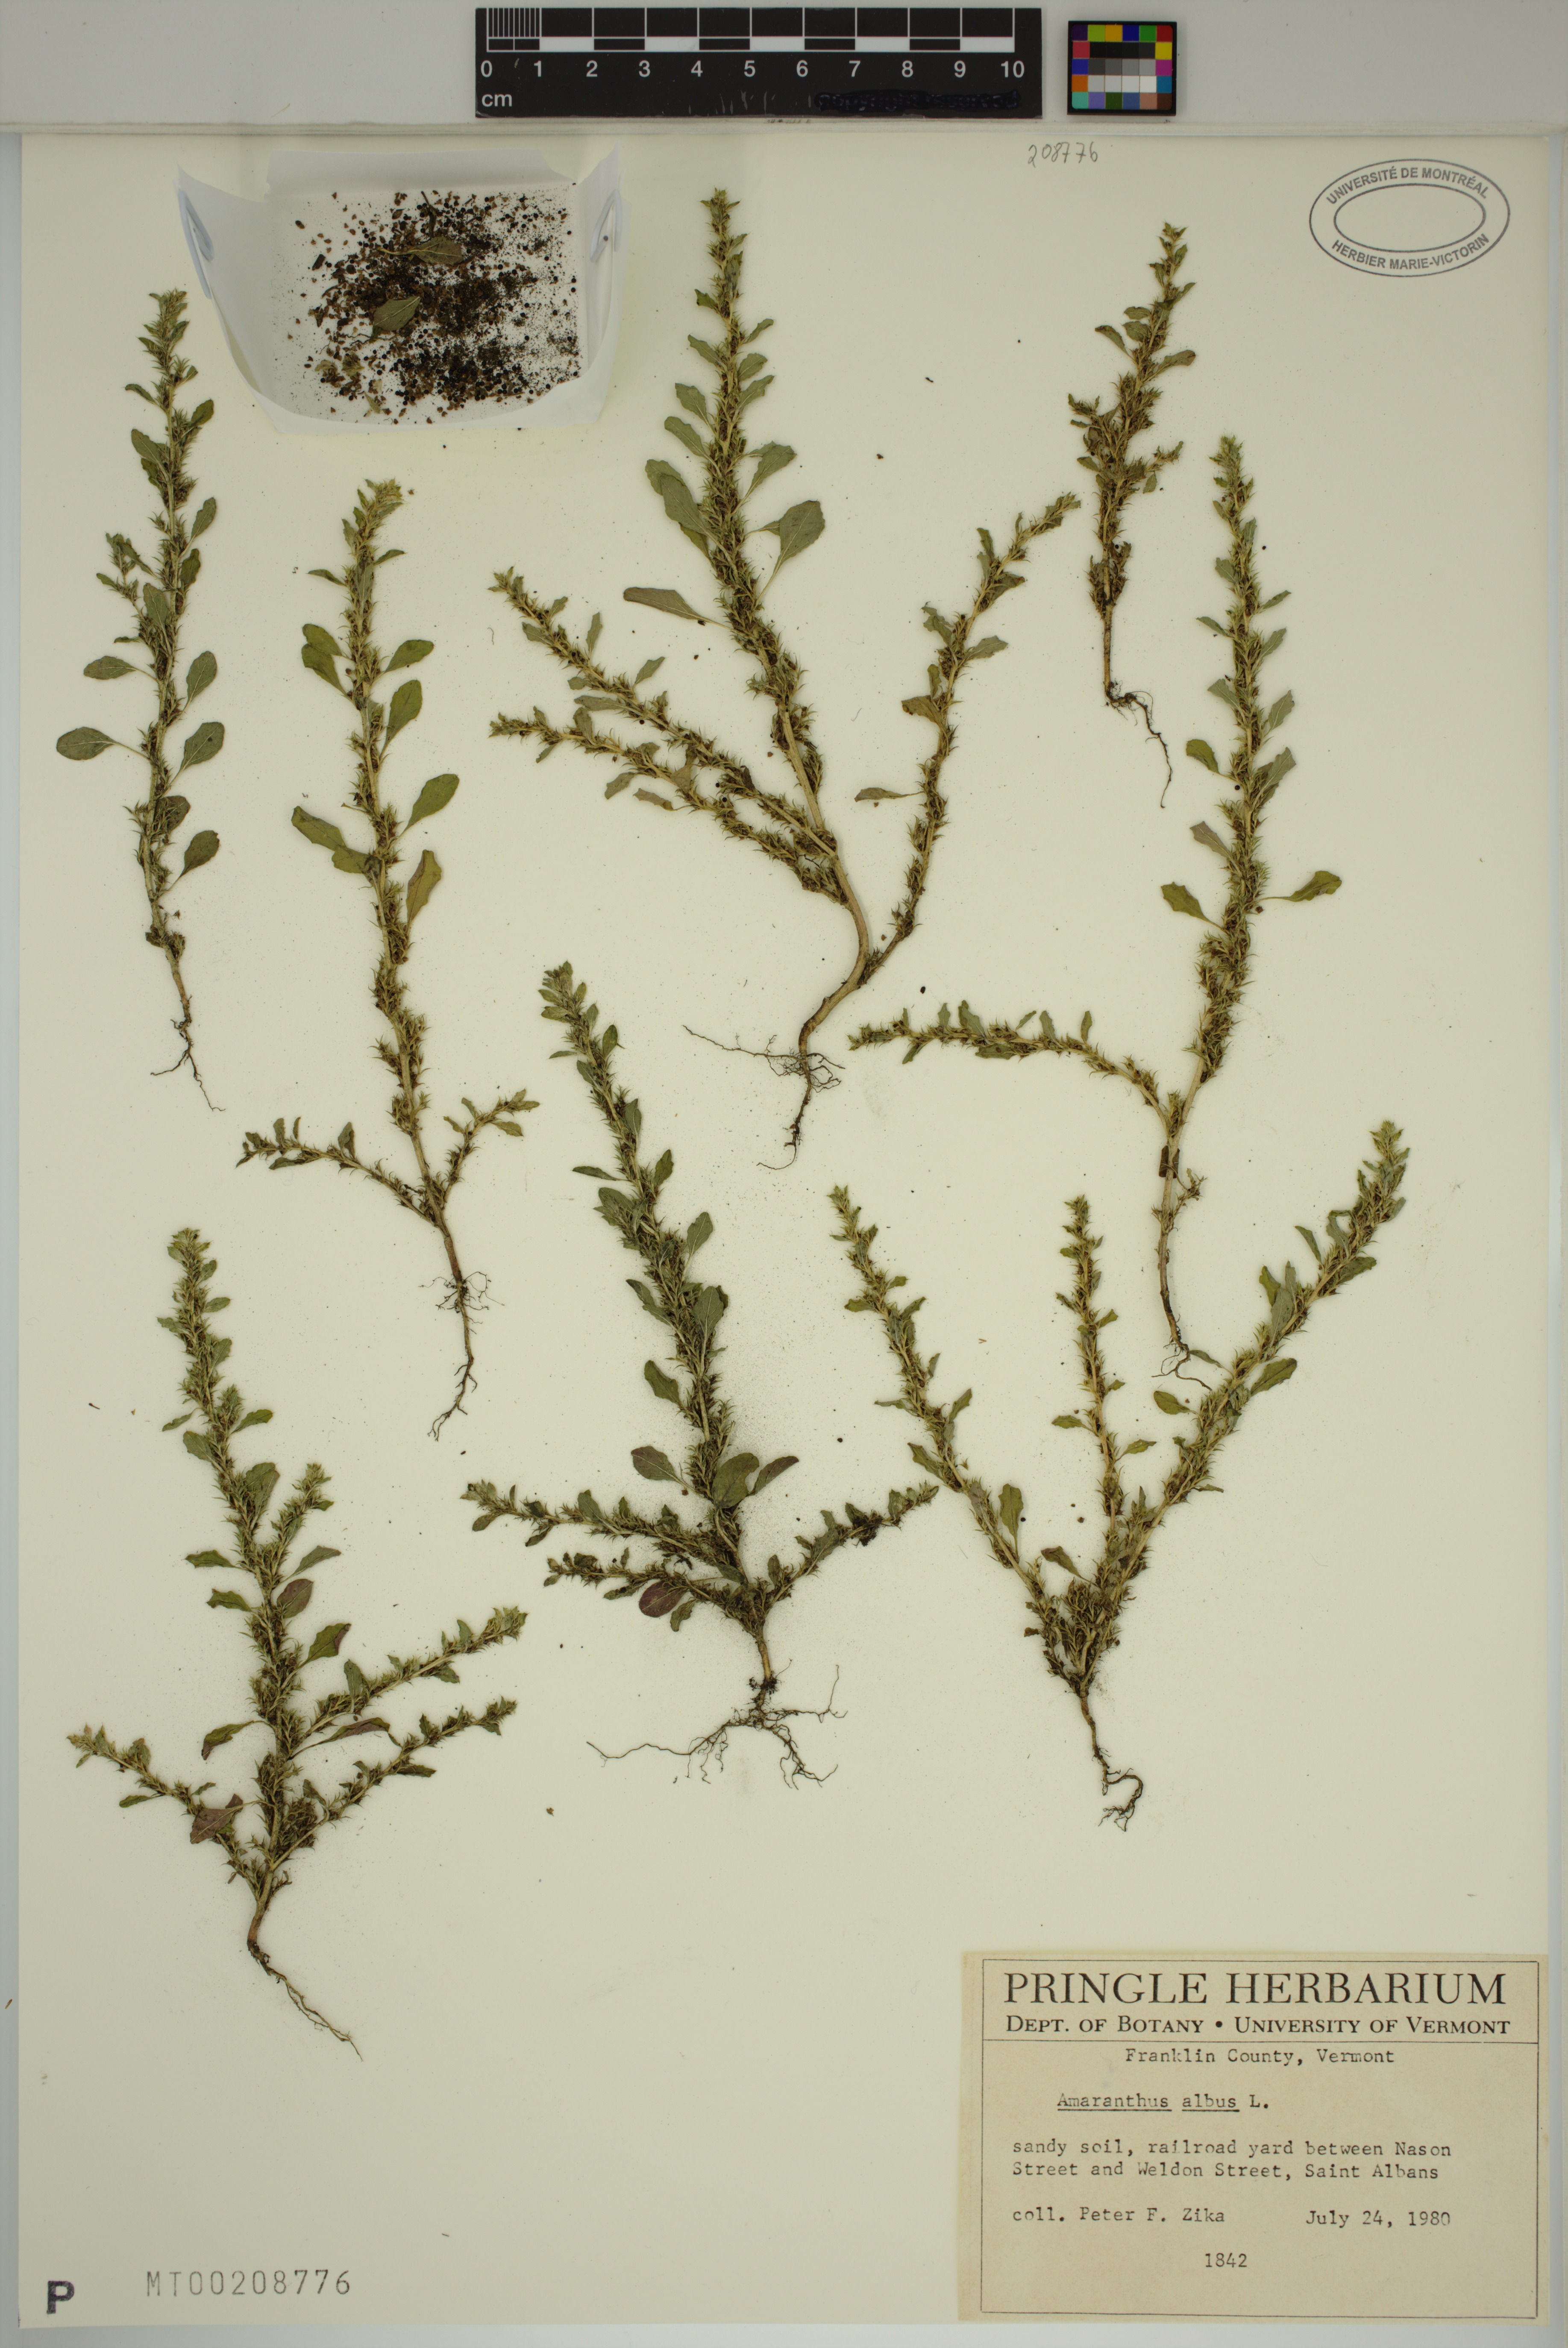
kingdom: Plantae
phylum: Tracheophyta
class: Magnoliopsida
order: Caryophyllales
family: Amaranthaceae
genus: Amaranthus
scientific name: Amaranthus albus
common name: White pigweed
